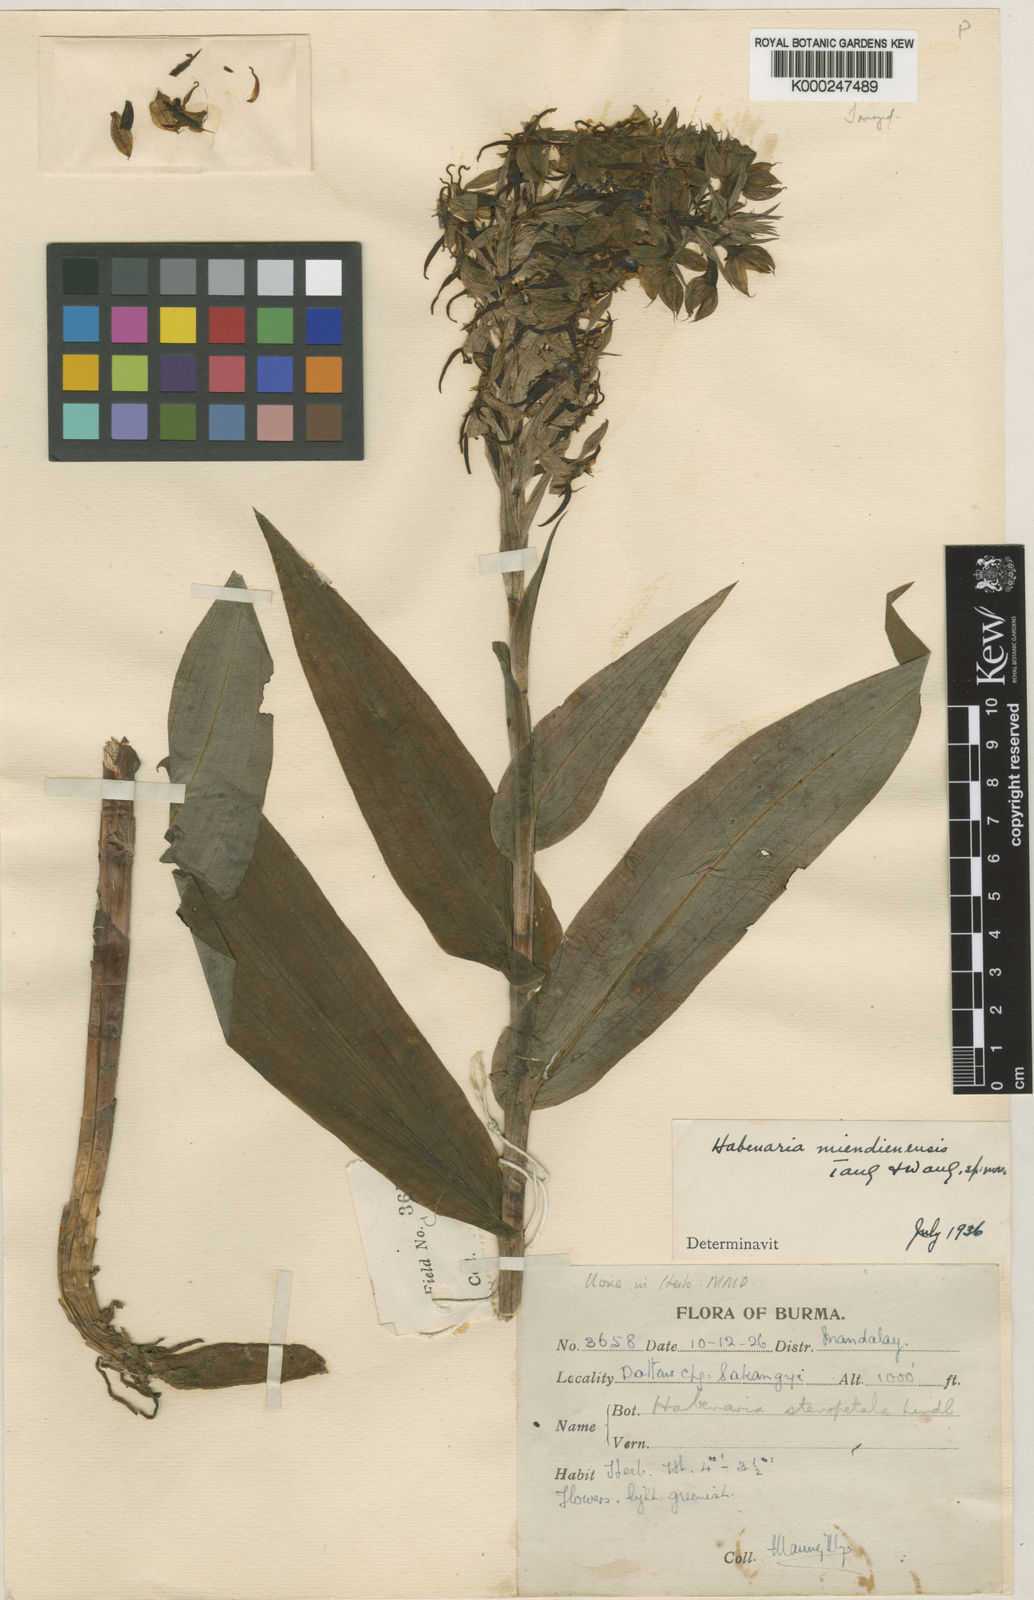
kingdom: Plantae
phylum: Tracheophyta
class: Liliopsida
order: Asparagales
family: Orchidaceae
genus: Habenaria
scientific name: Habenaria mientienensis
